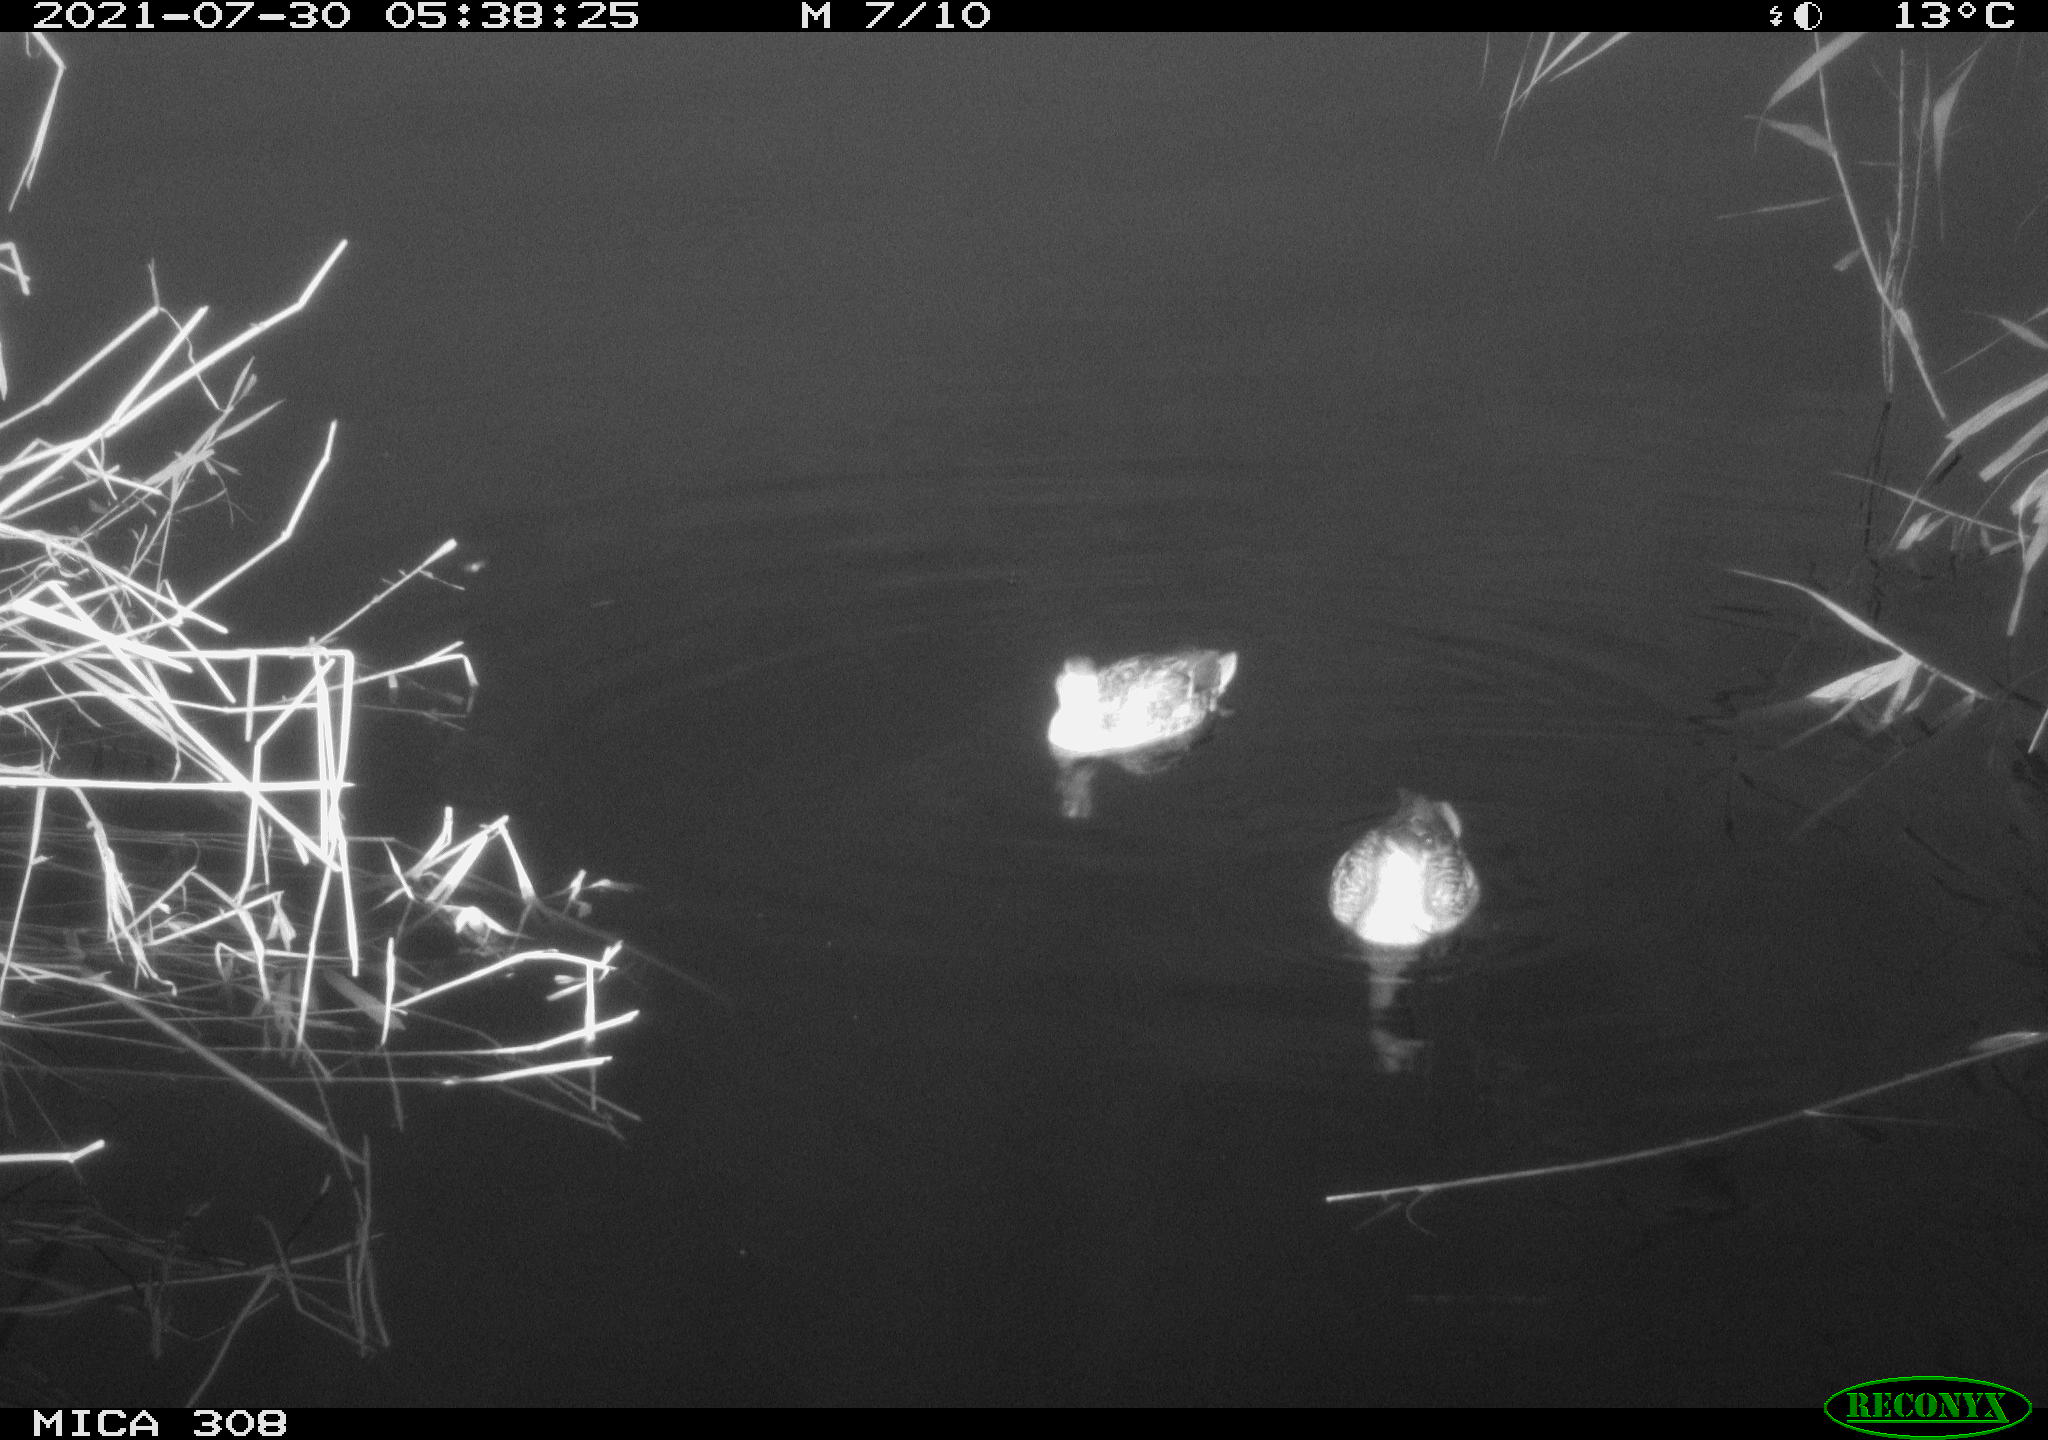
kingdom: Animalia
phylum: Chordata
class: Aves
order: Anseriformes
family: Anatidae
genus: Anas
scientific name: Anas platyrhynchos
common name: Mallard
